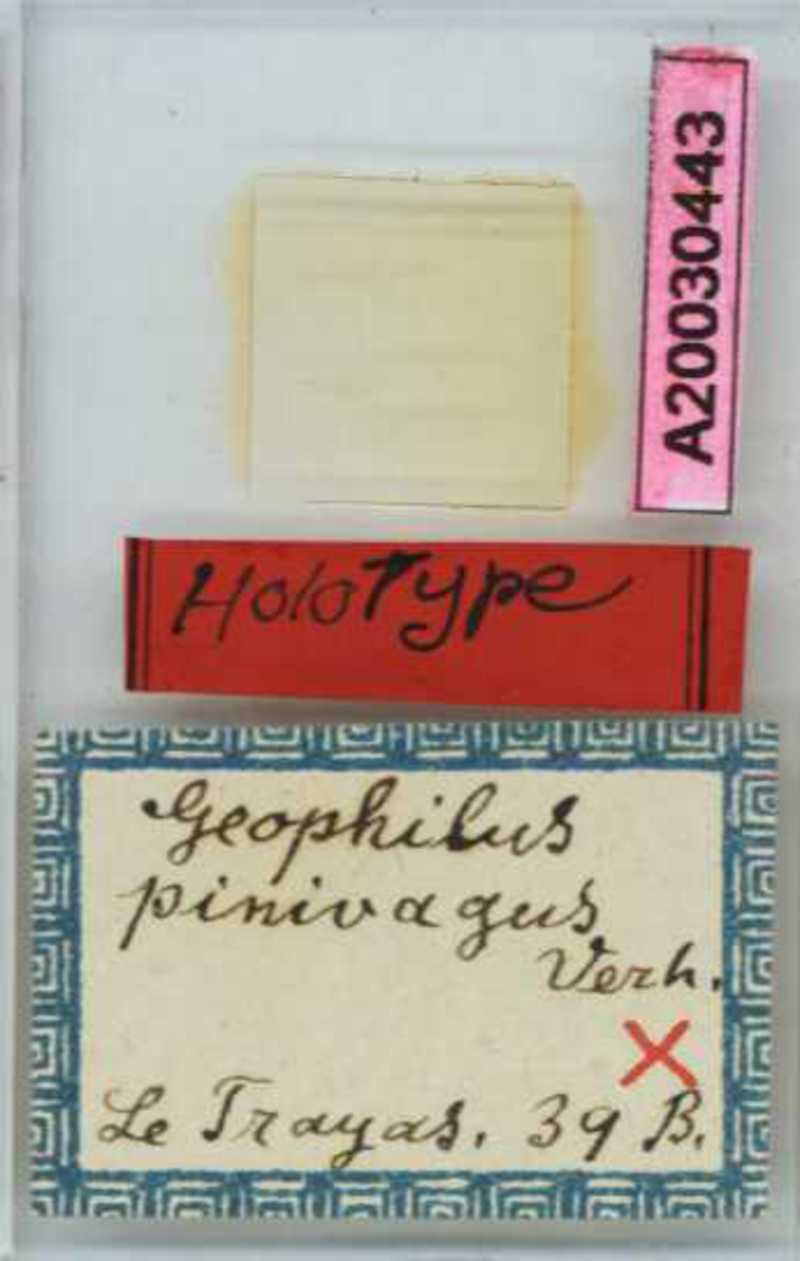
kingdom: Animalia
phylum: Arthropoda
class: Chilopoda
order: Geophilomorpha
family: Geophilidae
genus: Geophilus
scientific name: Geophilus pinivagus
